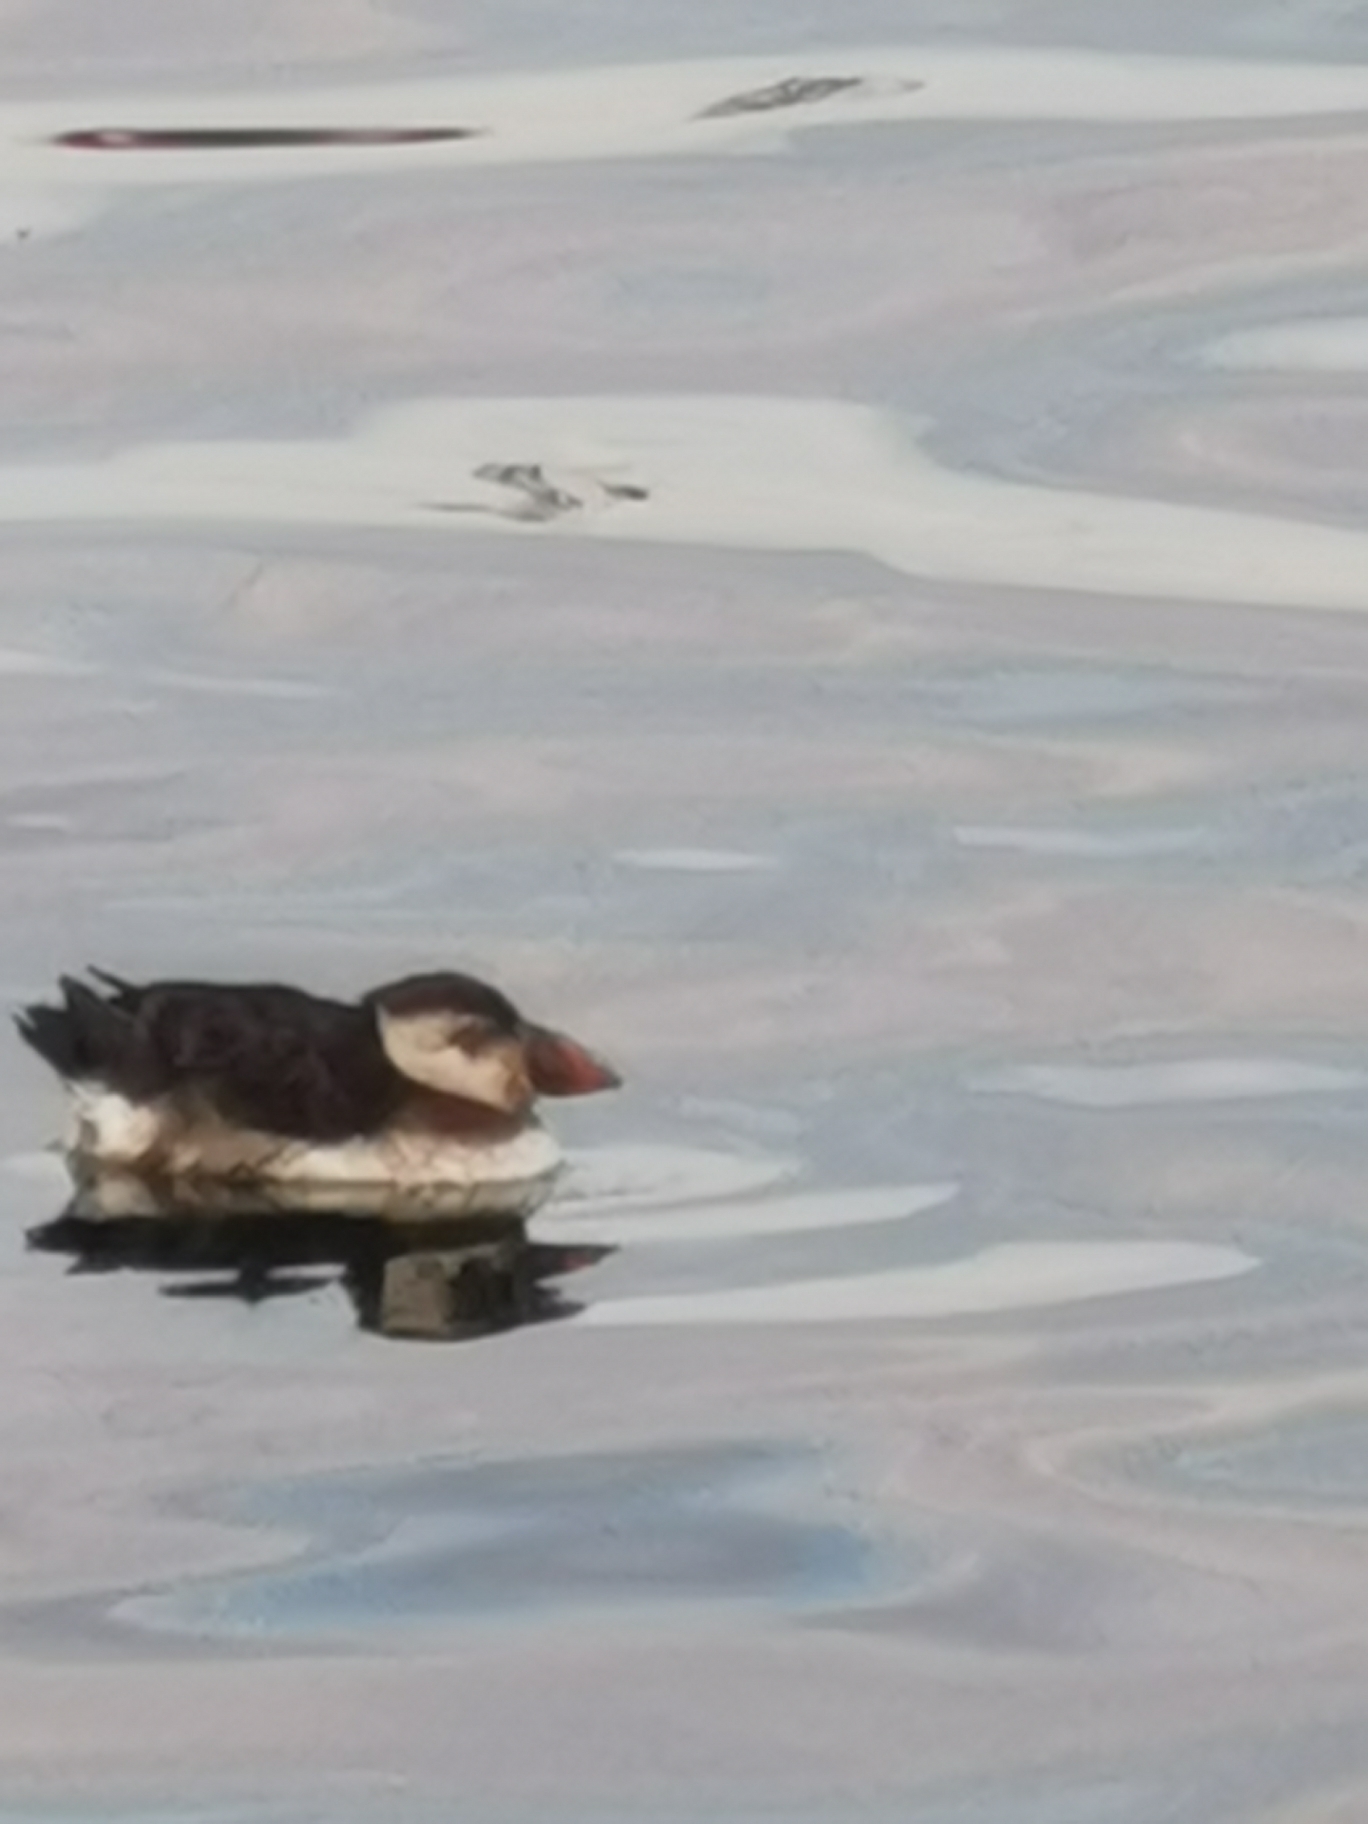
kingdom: Animalia
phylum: Chordata
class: Aves
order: Charadriiformes
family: Alcidae
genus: Fratercula
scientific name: Fratercula arctica
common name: Lunde
